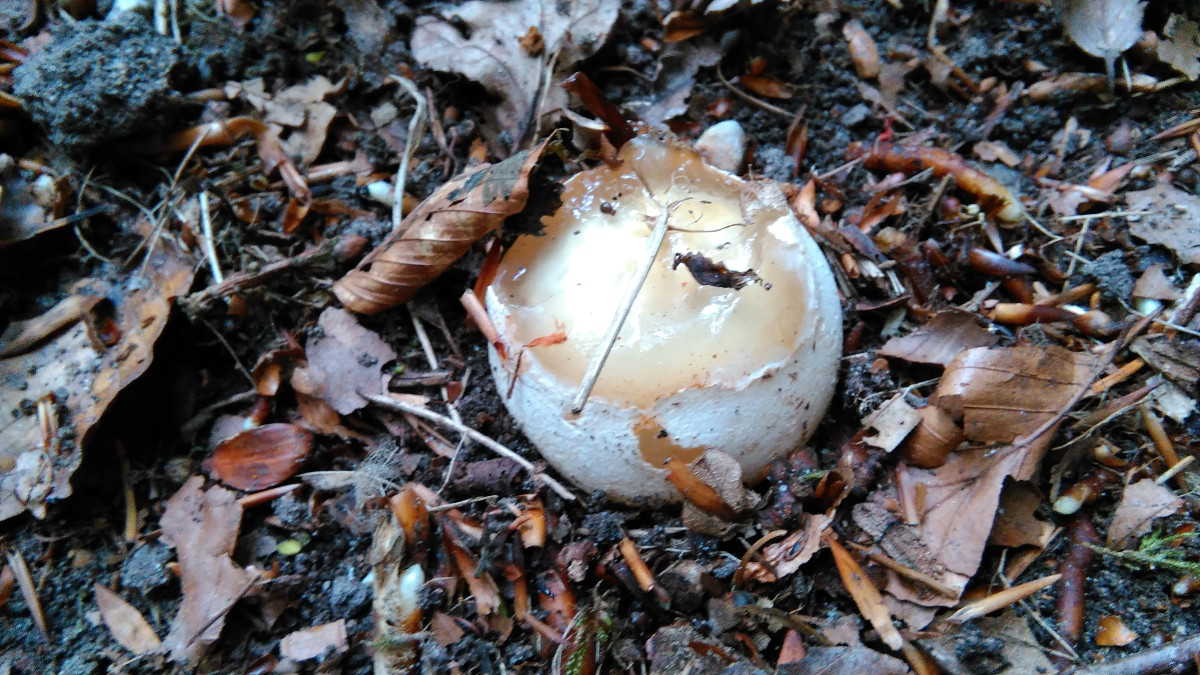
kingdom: Fungi
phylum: Basidiomycota
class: Agaricomycetes
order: Phallales
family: Phallaceae
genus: Phallus
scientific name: Phallus impudicus
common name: almindelig stinksvamp
